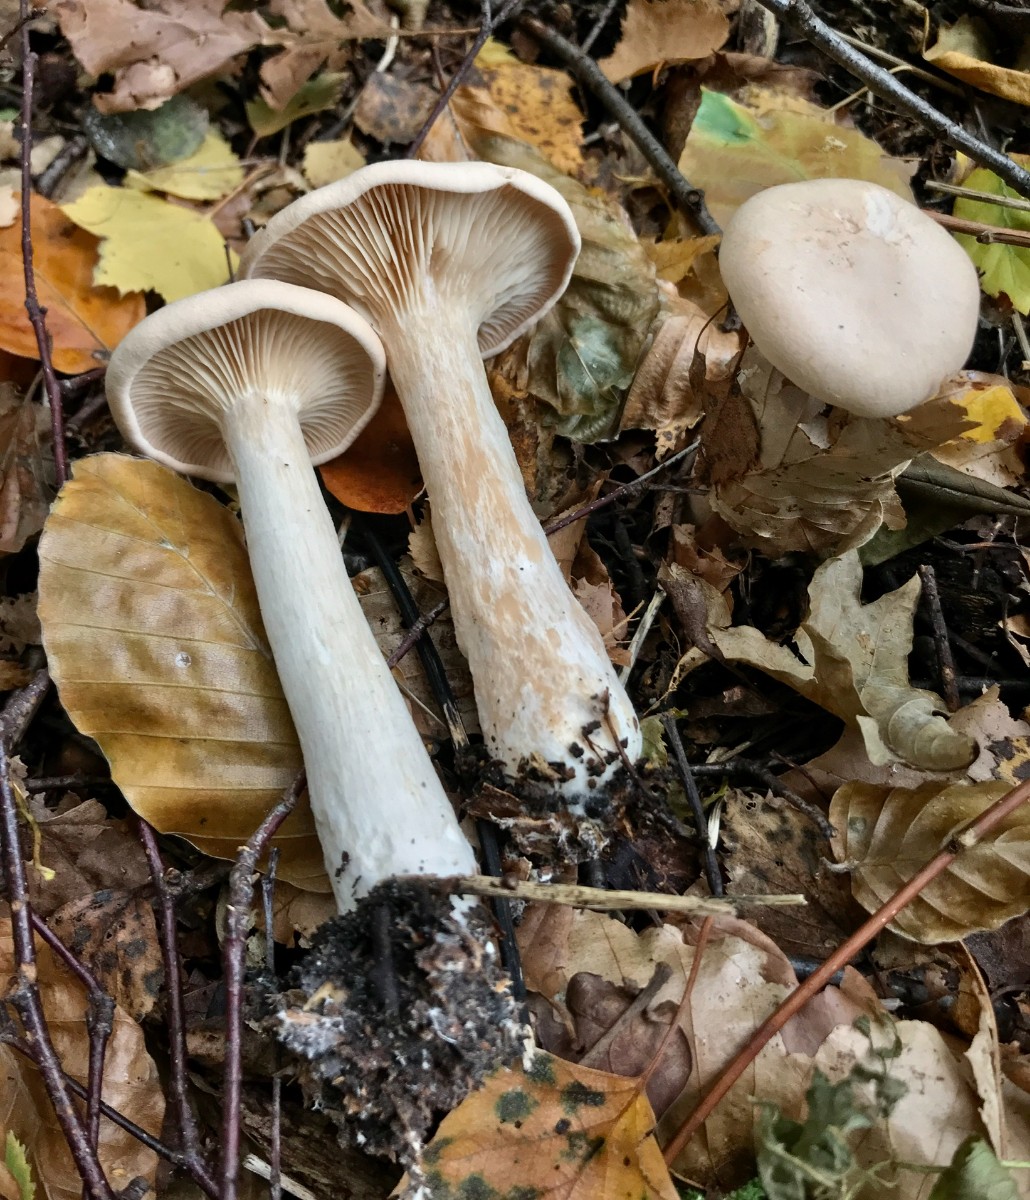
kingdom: Fungi
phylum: Basidiomycota
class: Agaricomycetes
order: Agaricales
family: Tricholomataceae
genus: Infundibulicybe
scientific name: Infundibulicybe geotropa
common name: stor tragthat
